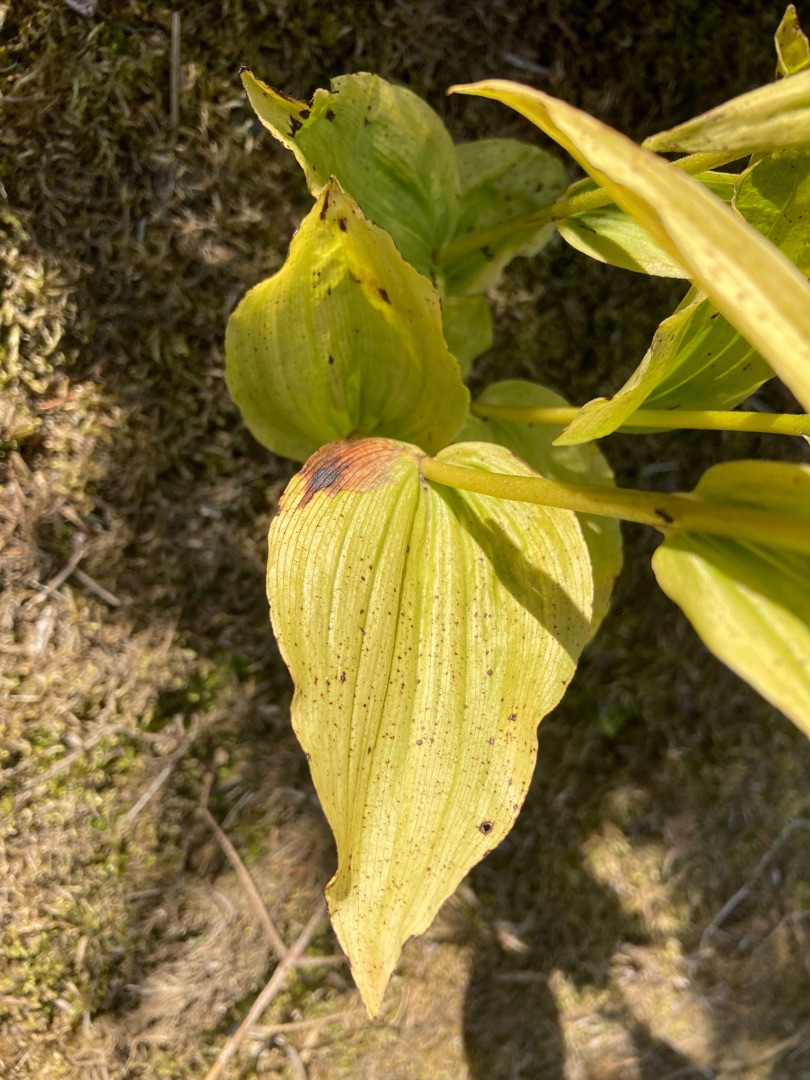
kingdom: Plantae
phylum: Tracheophyta
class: Liliopsida
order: Asparagales
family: Orchidaceae
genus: Epipactis
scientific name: Epipactis helleborine
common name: Skov-hullæbe
